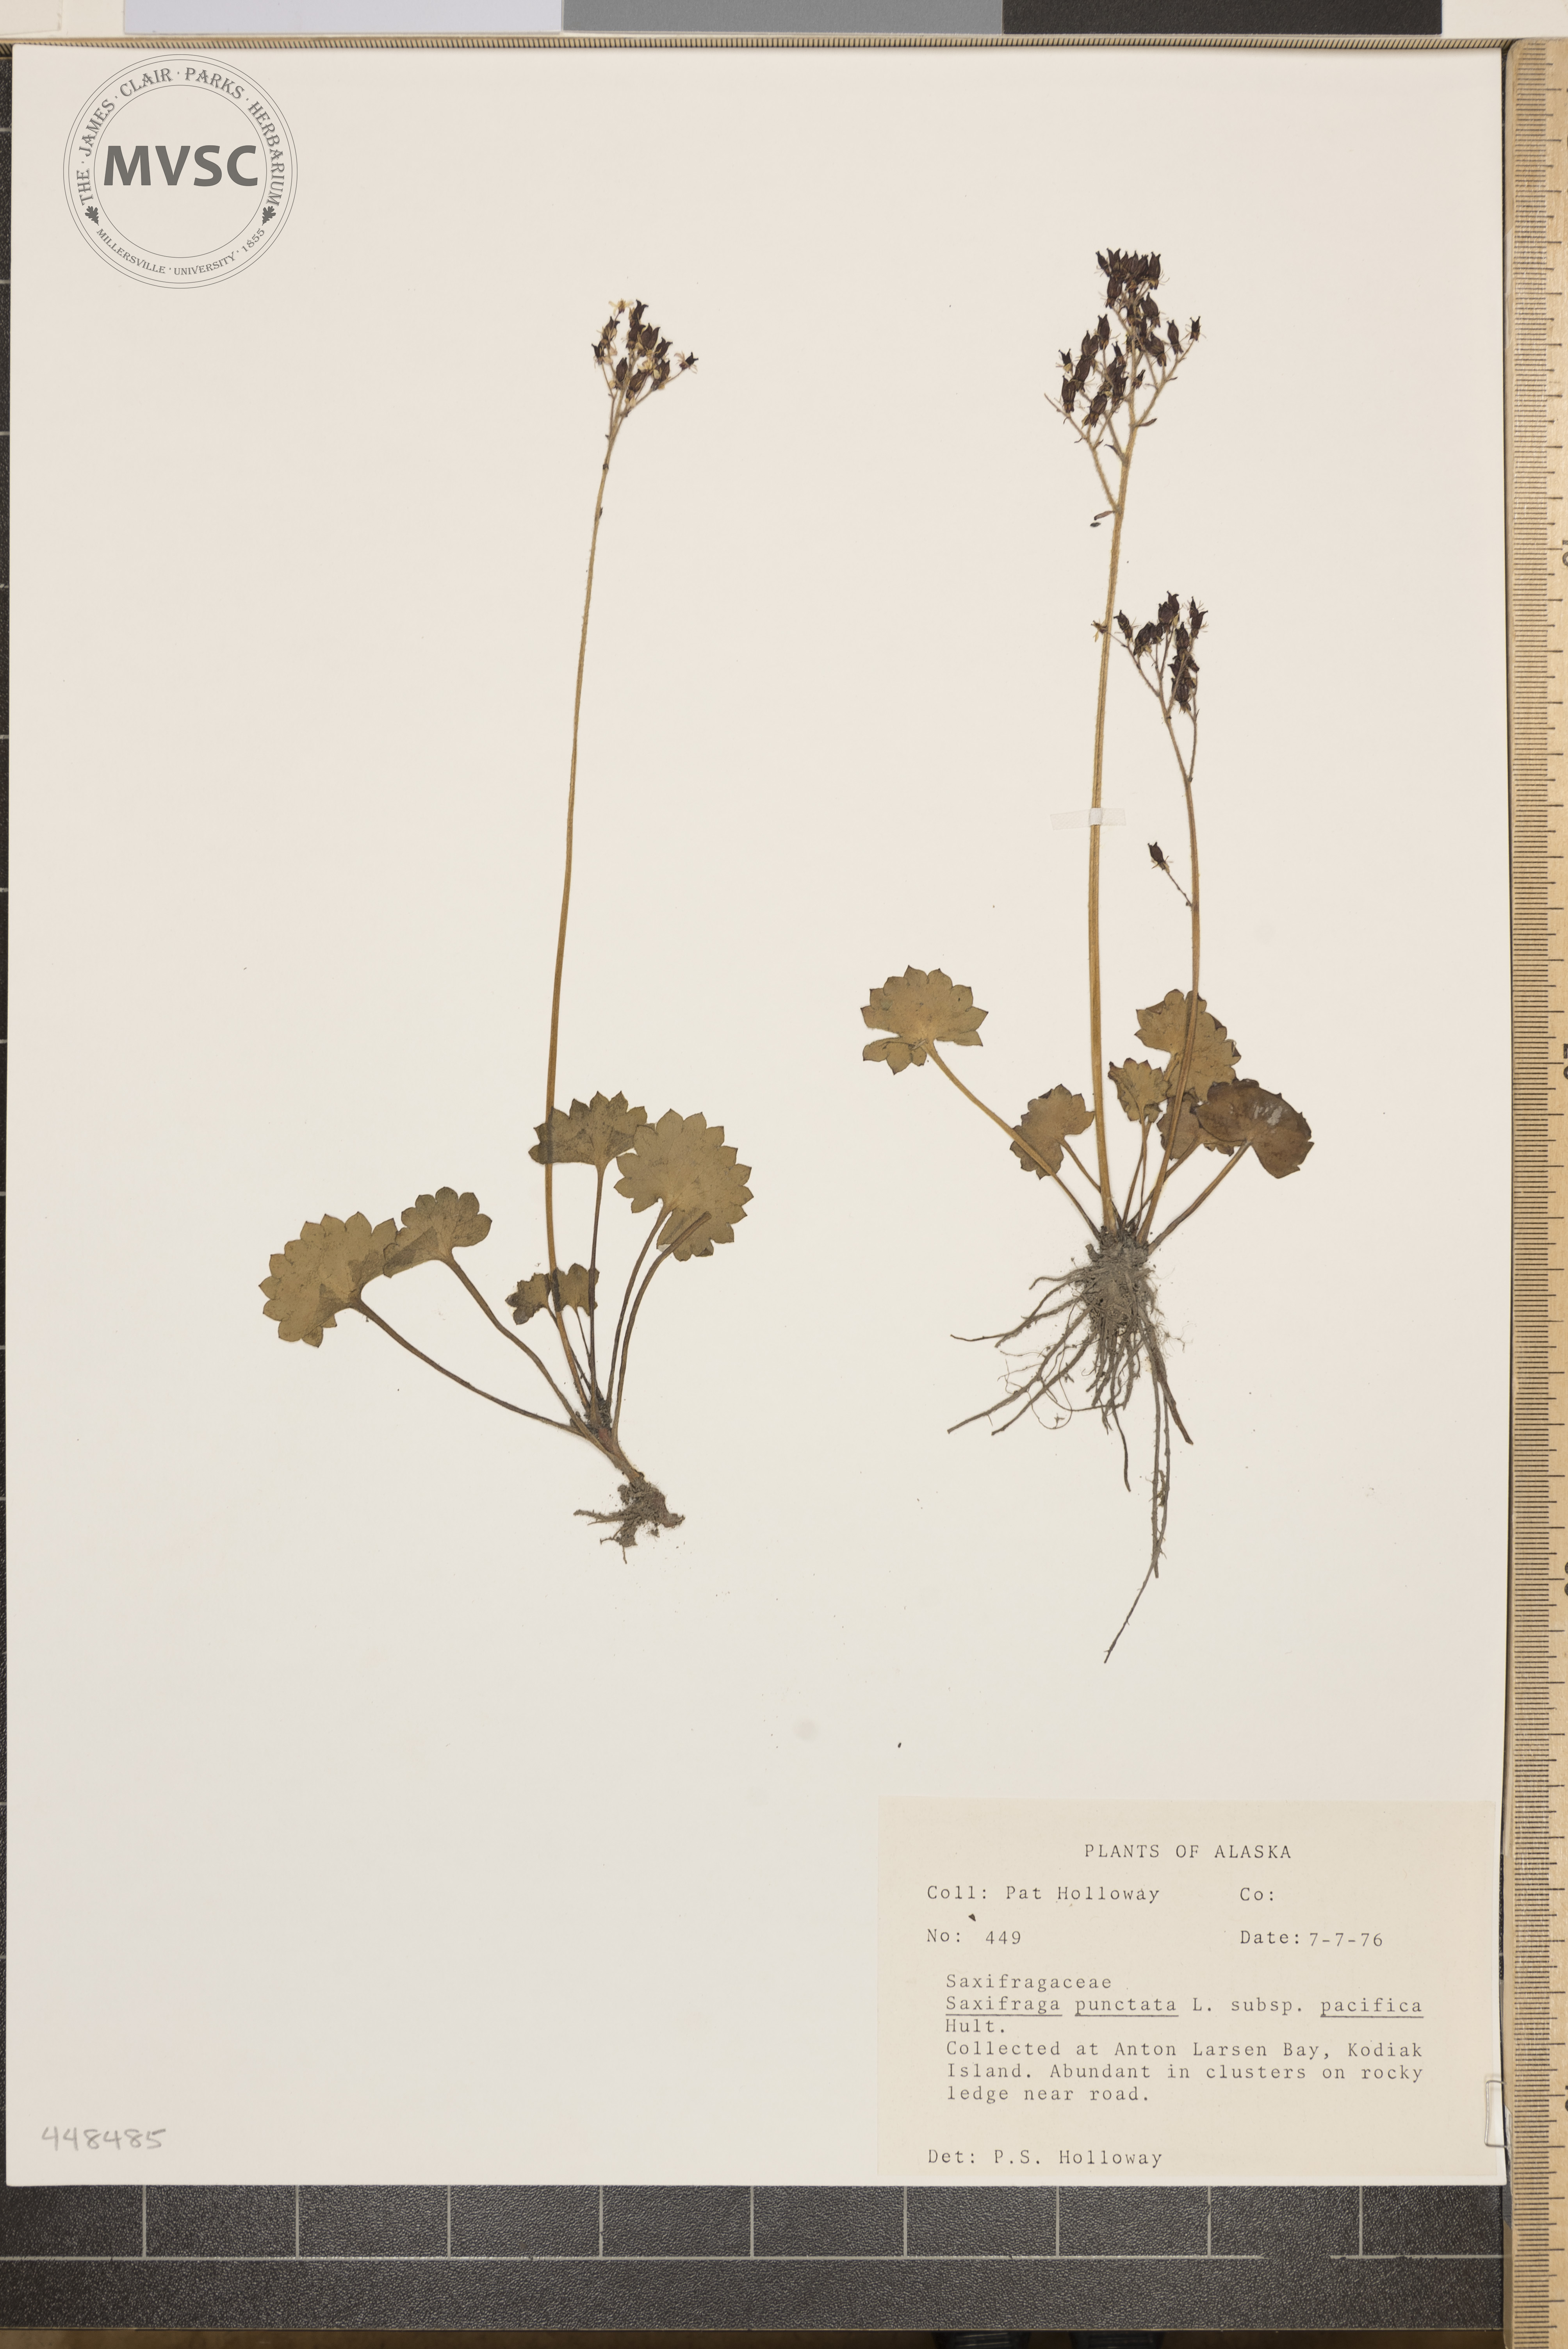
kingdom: Plantae
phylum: Tracheophyta
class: Magnoliopsida
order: Saxifragales
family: Saxifragaceae
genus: Saxifraga
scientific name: Saxifraga punctata
